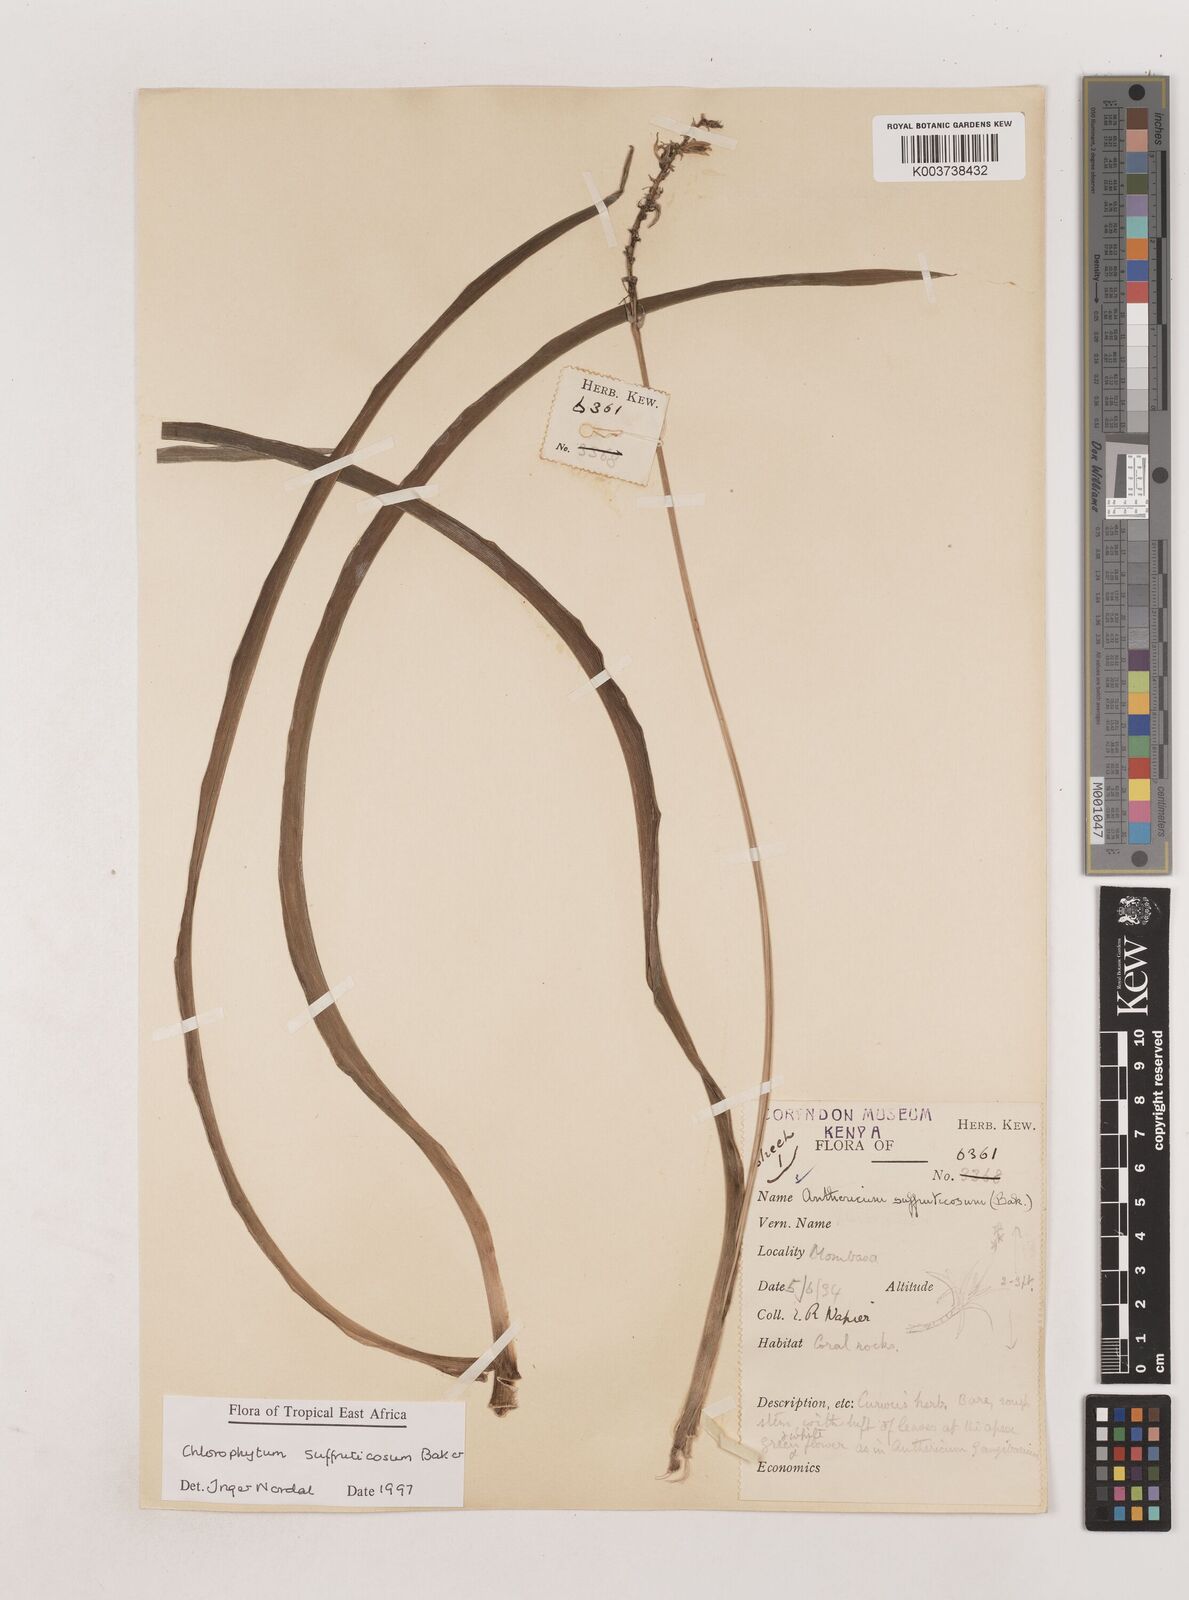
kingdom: Plantae
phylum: Tracheophyta
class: Liliopsida
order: Asparagales
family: Asparagaceae
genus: Chlorophytum
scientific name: Chlorophytum suffruticosum
